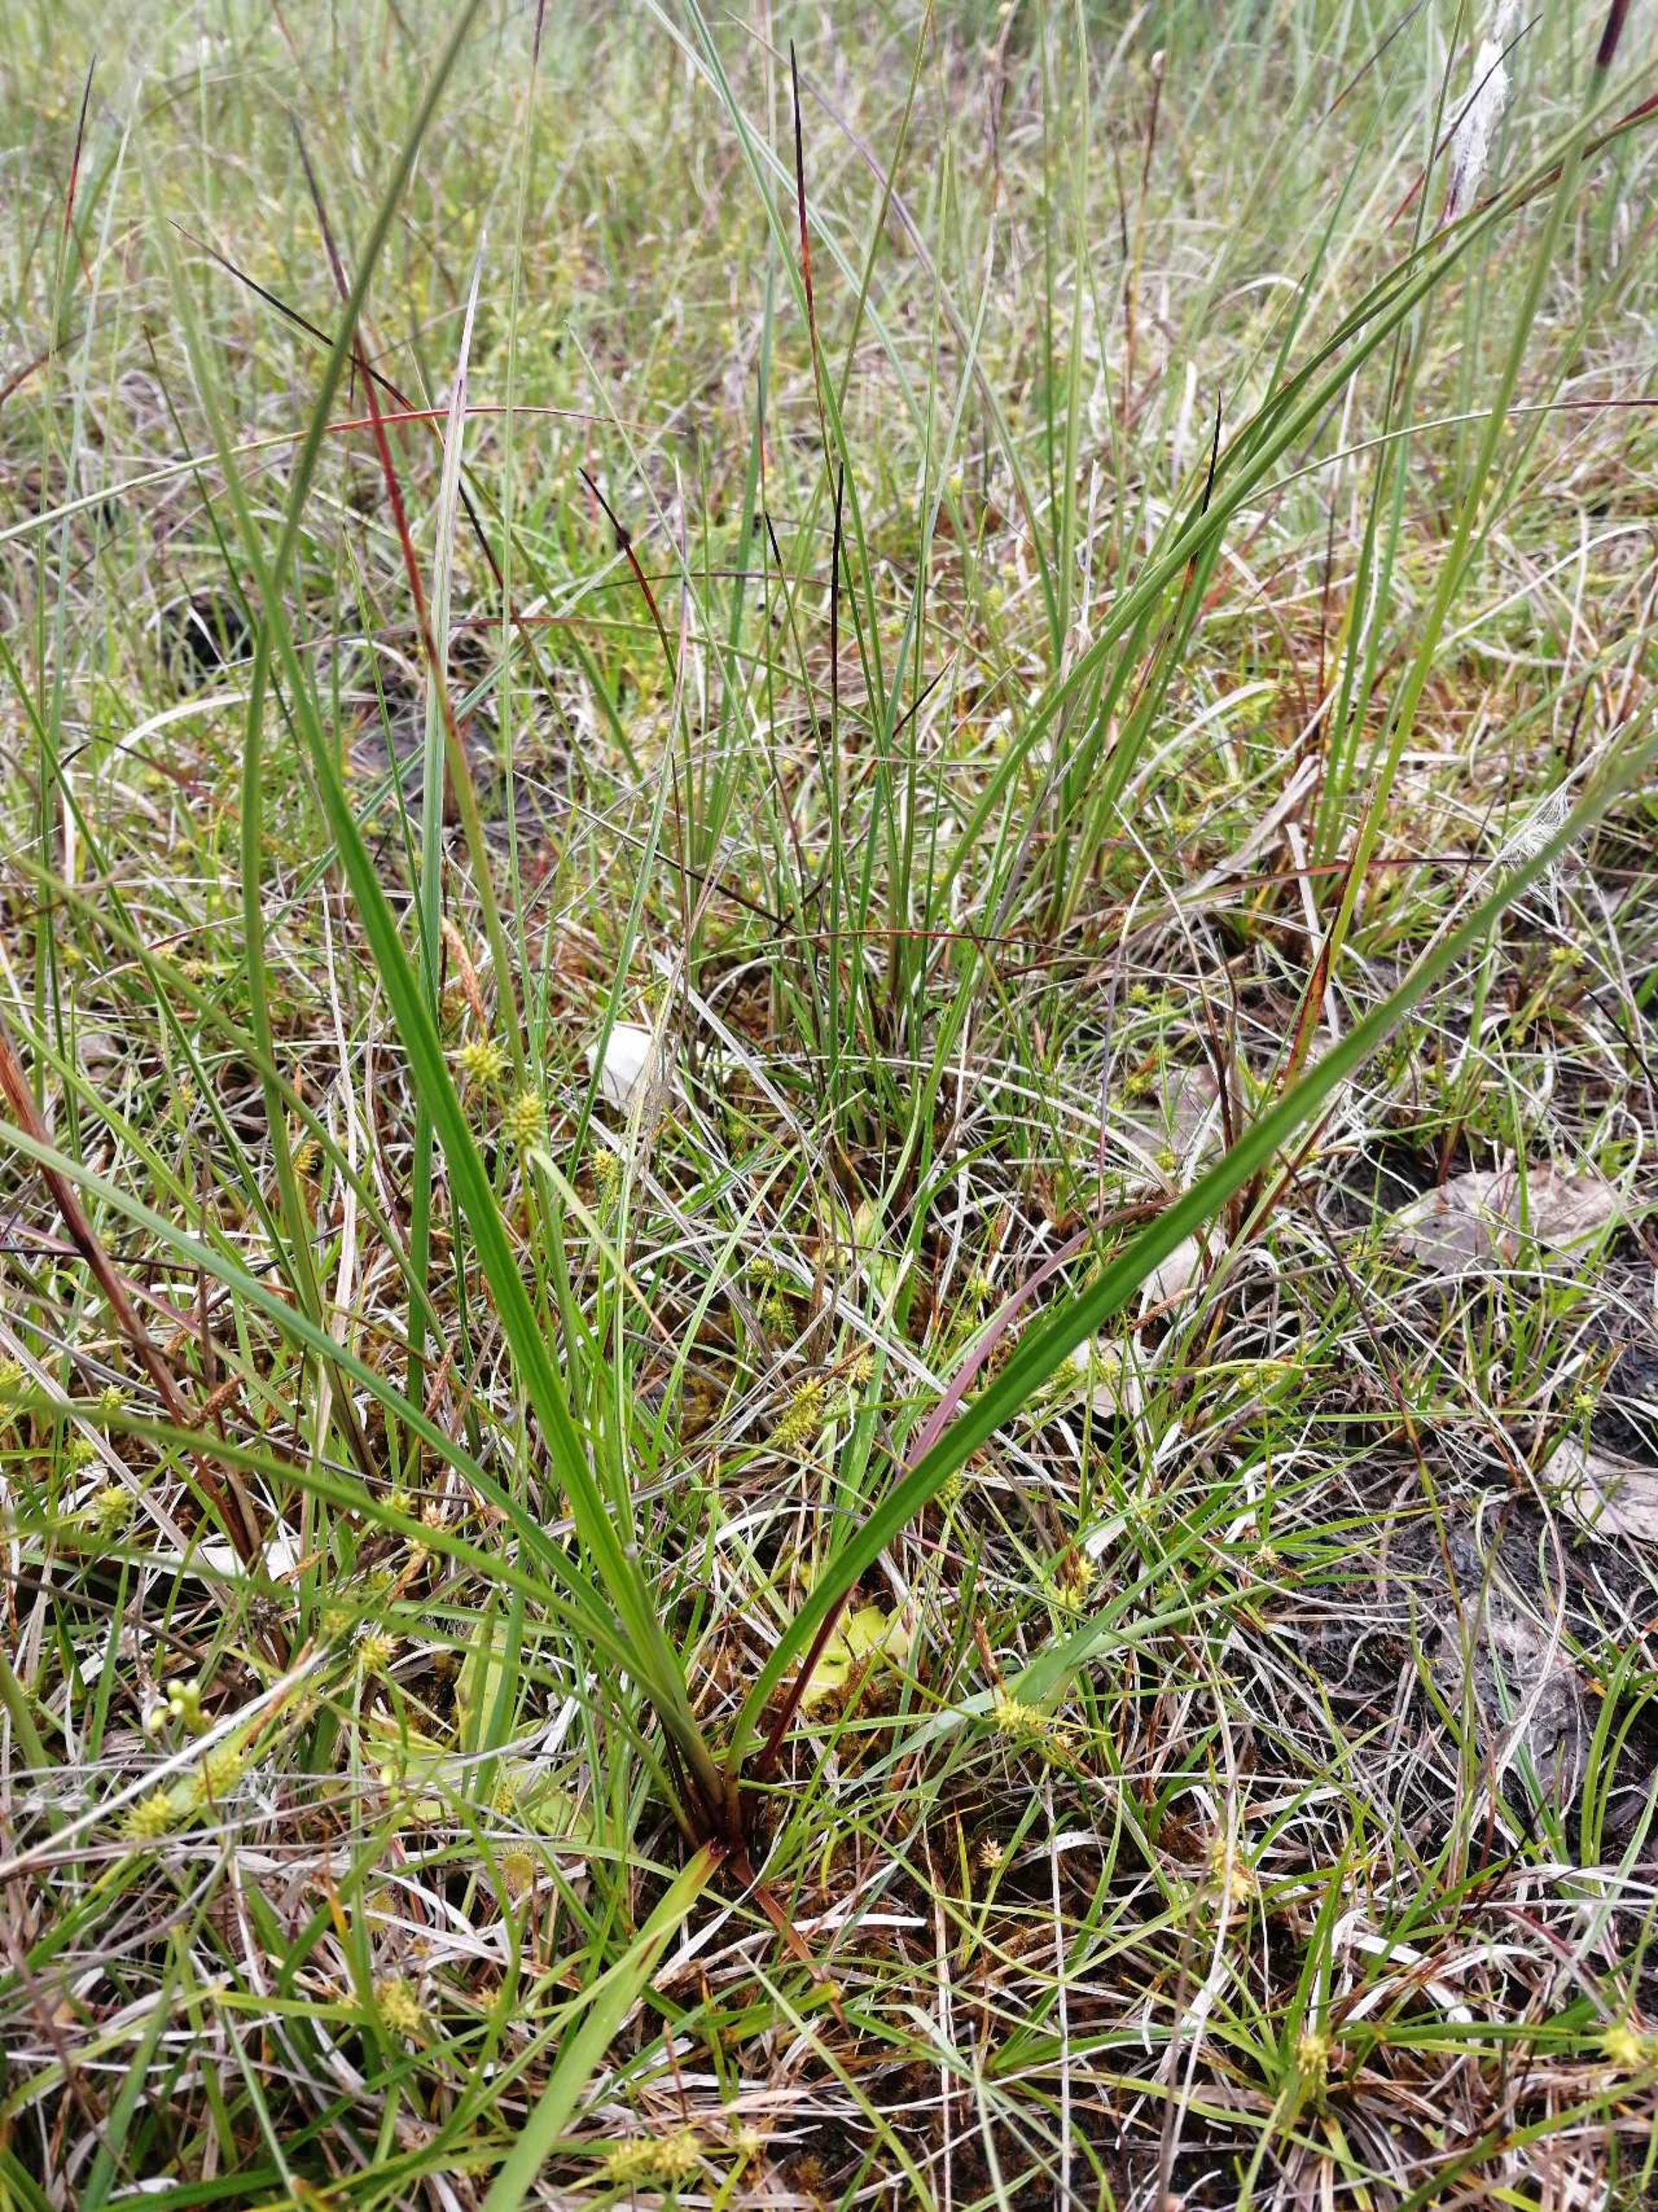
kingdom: Plantae
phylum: Tracheophyta
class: Liliopsida
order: Poales
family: Cyperaceae
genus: Eriophorum
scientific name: Eriophorum angustifolium
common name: Smalbladet kæruld
